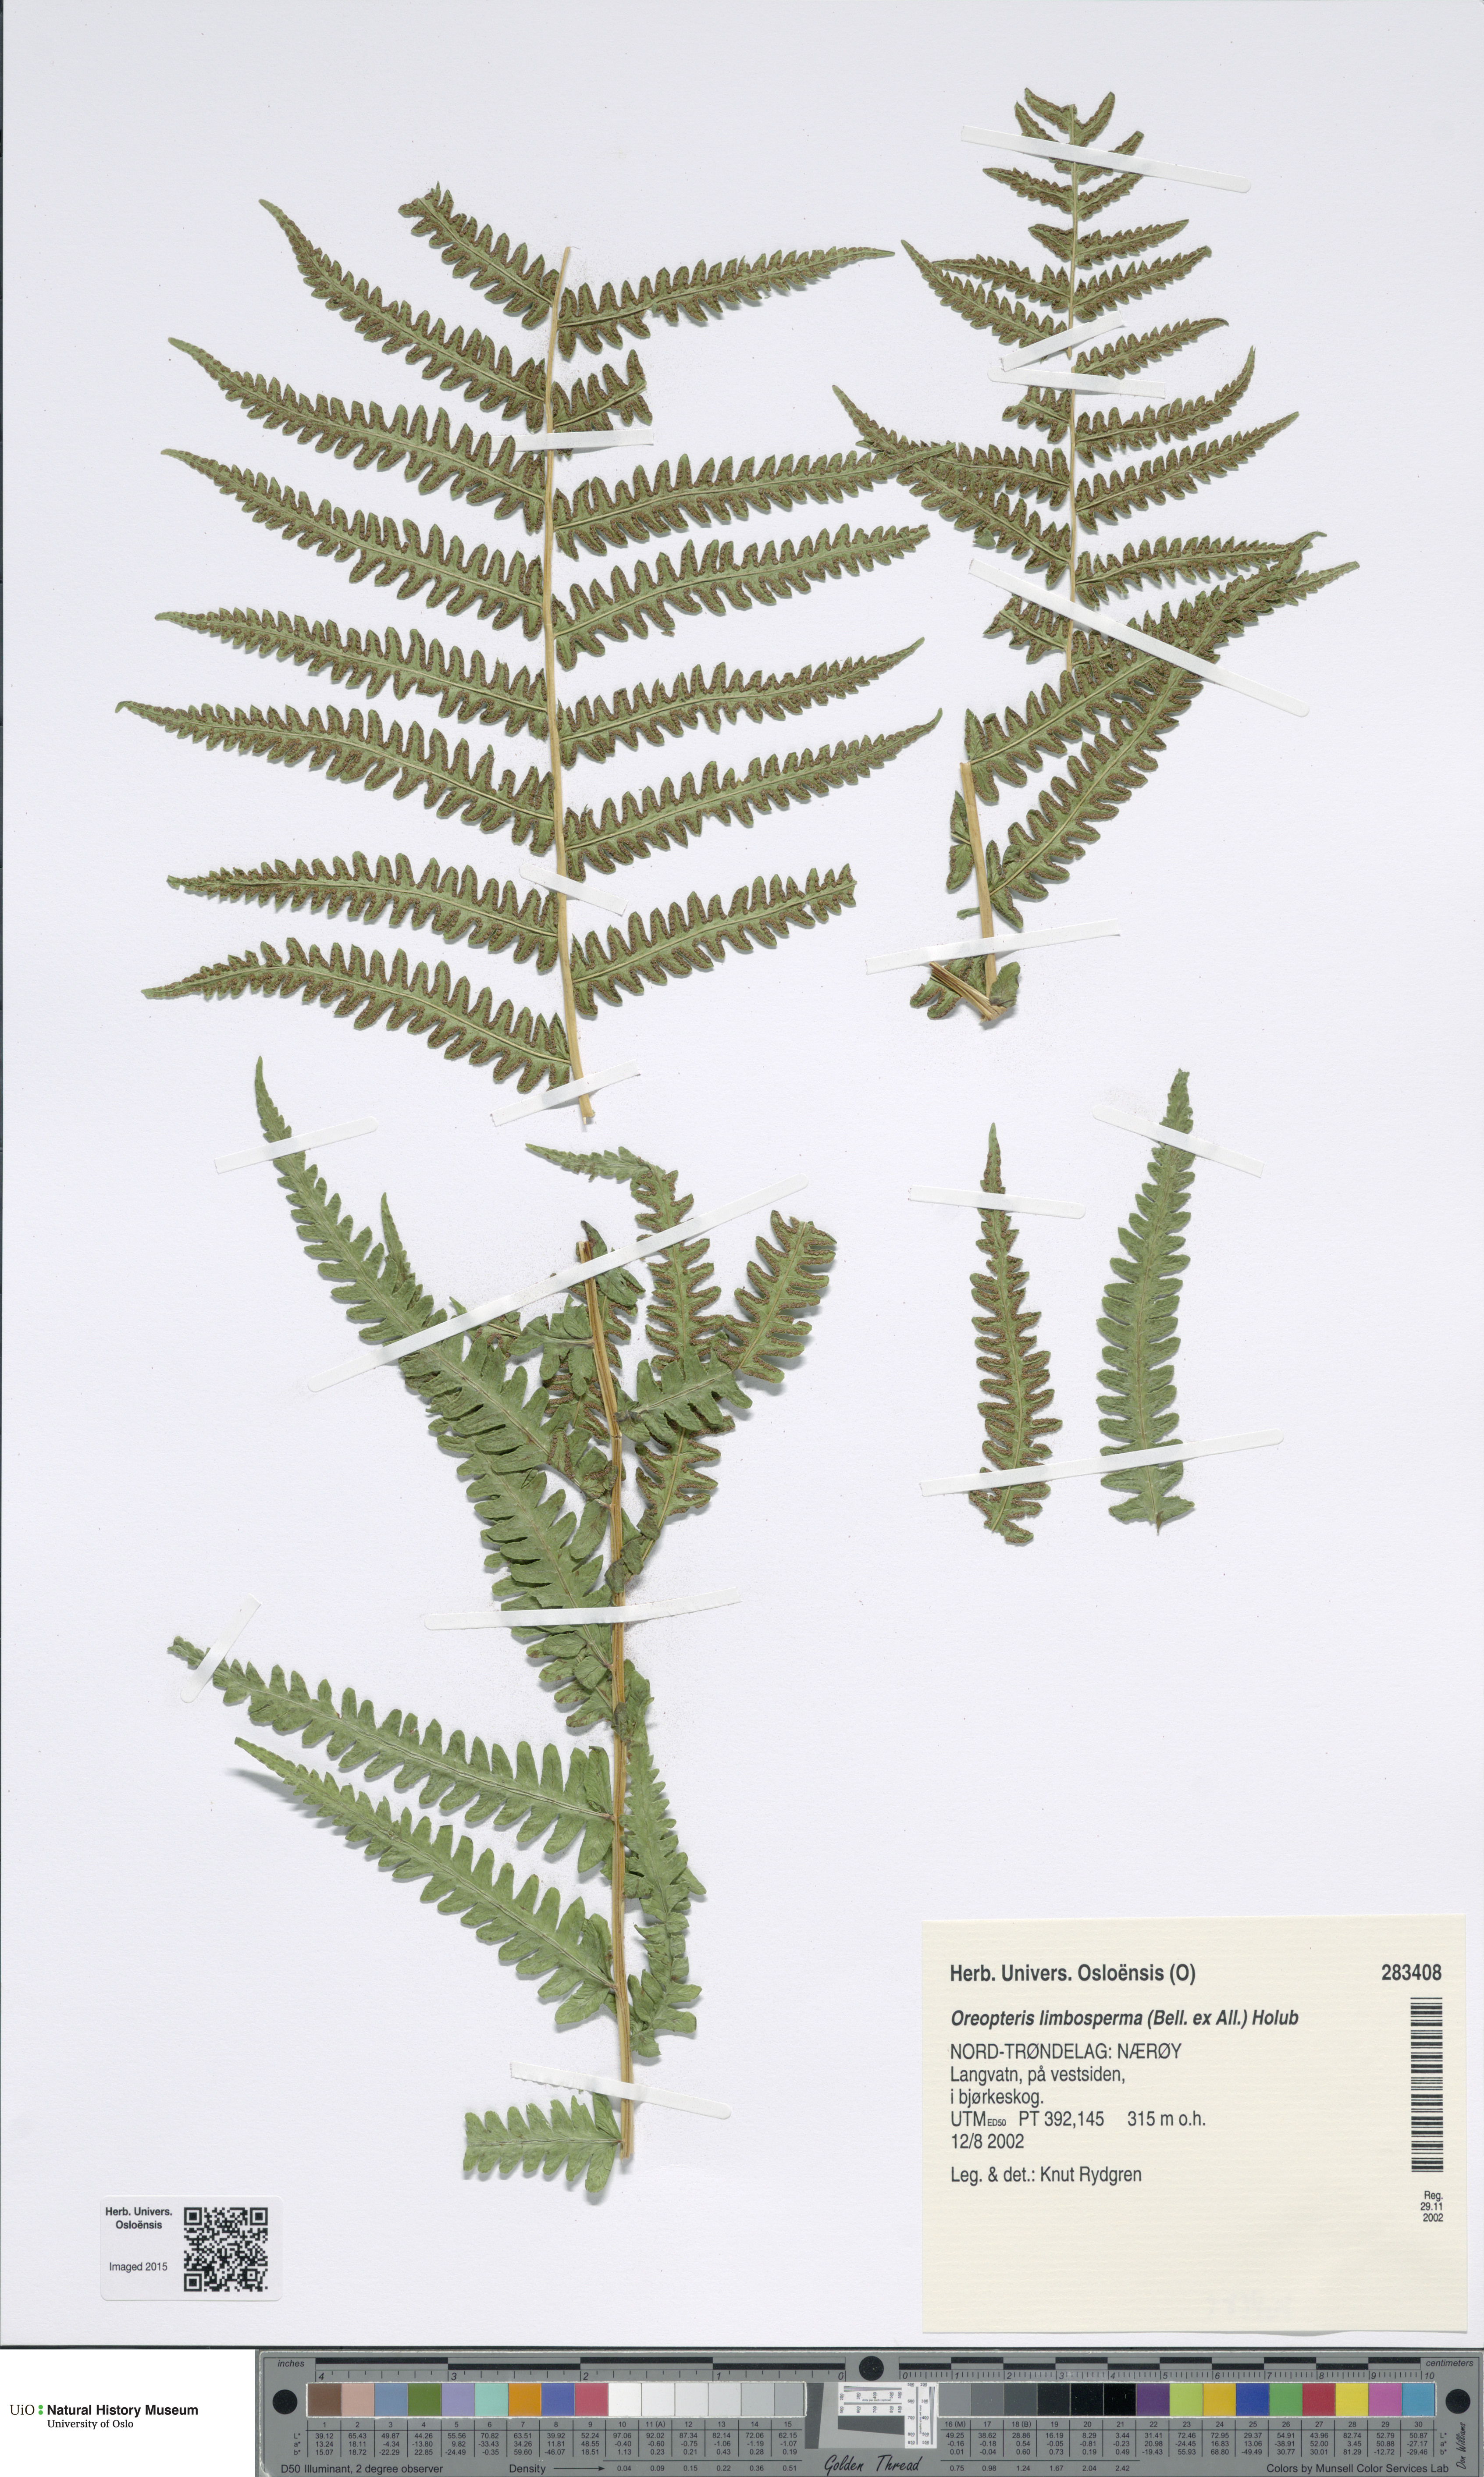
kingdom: Plantae
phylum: Tracheophyta
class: Polypodiopsida
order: Polypodiales
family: Thelypteridaceae
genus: Oreopteris
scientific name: Oreopteris limbosperma
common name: Lemon-scented fern
